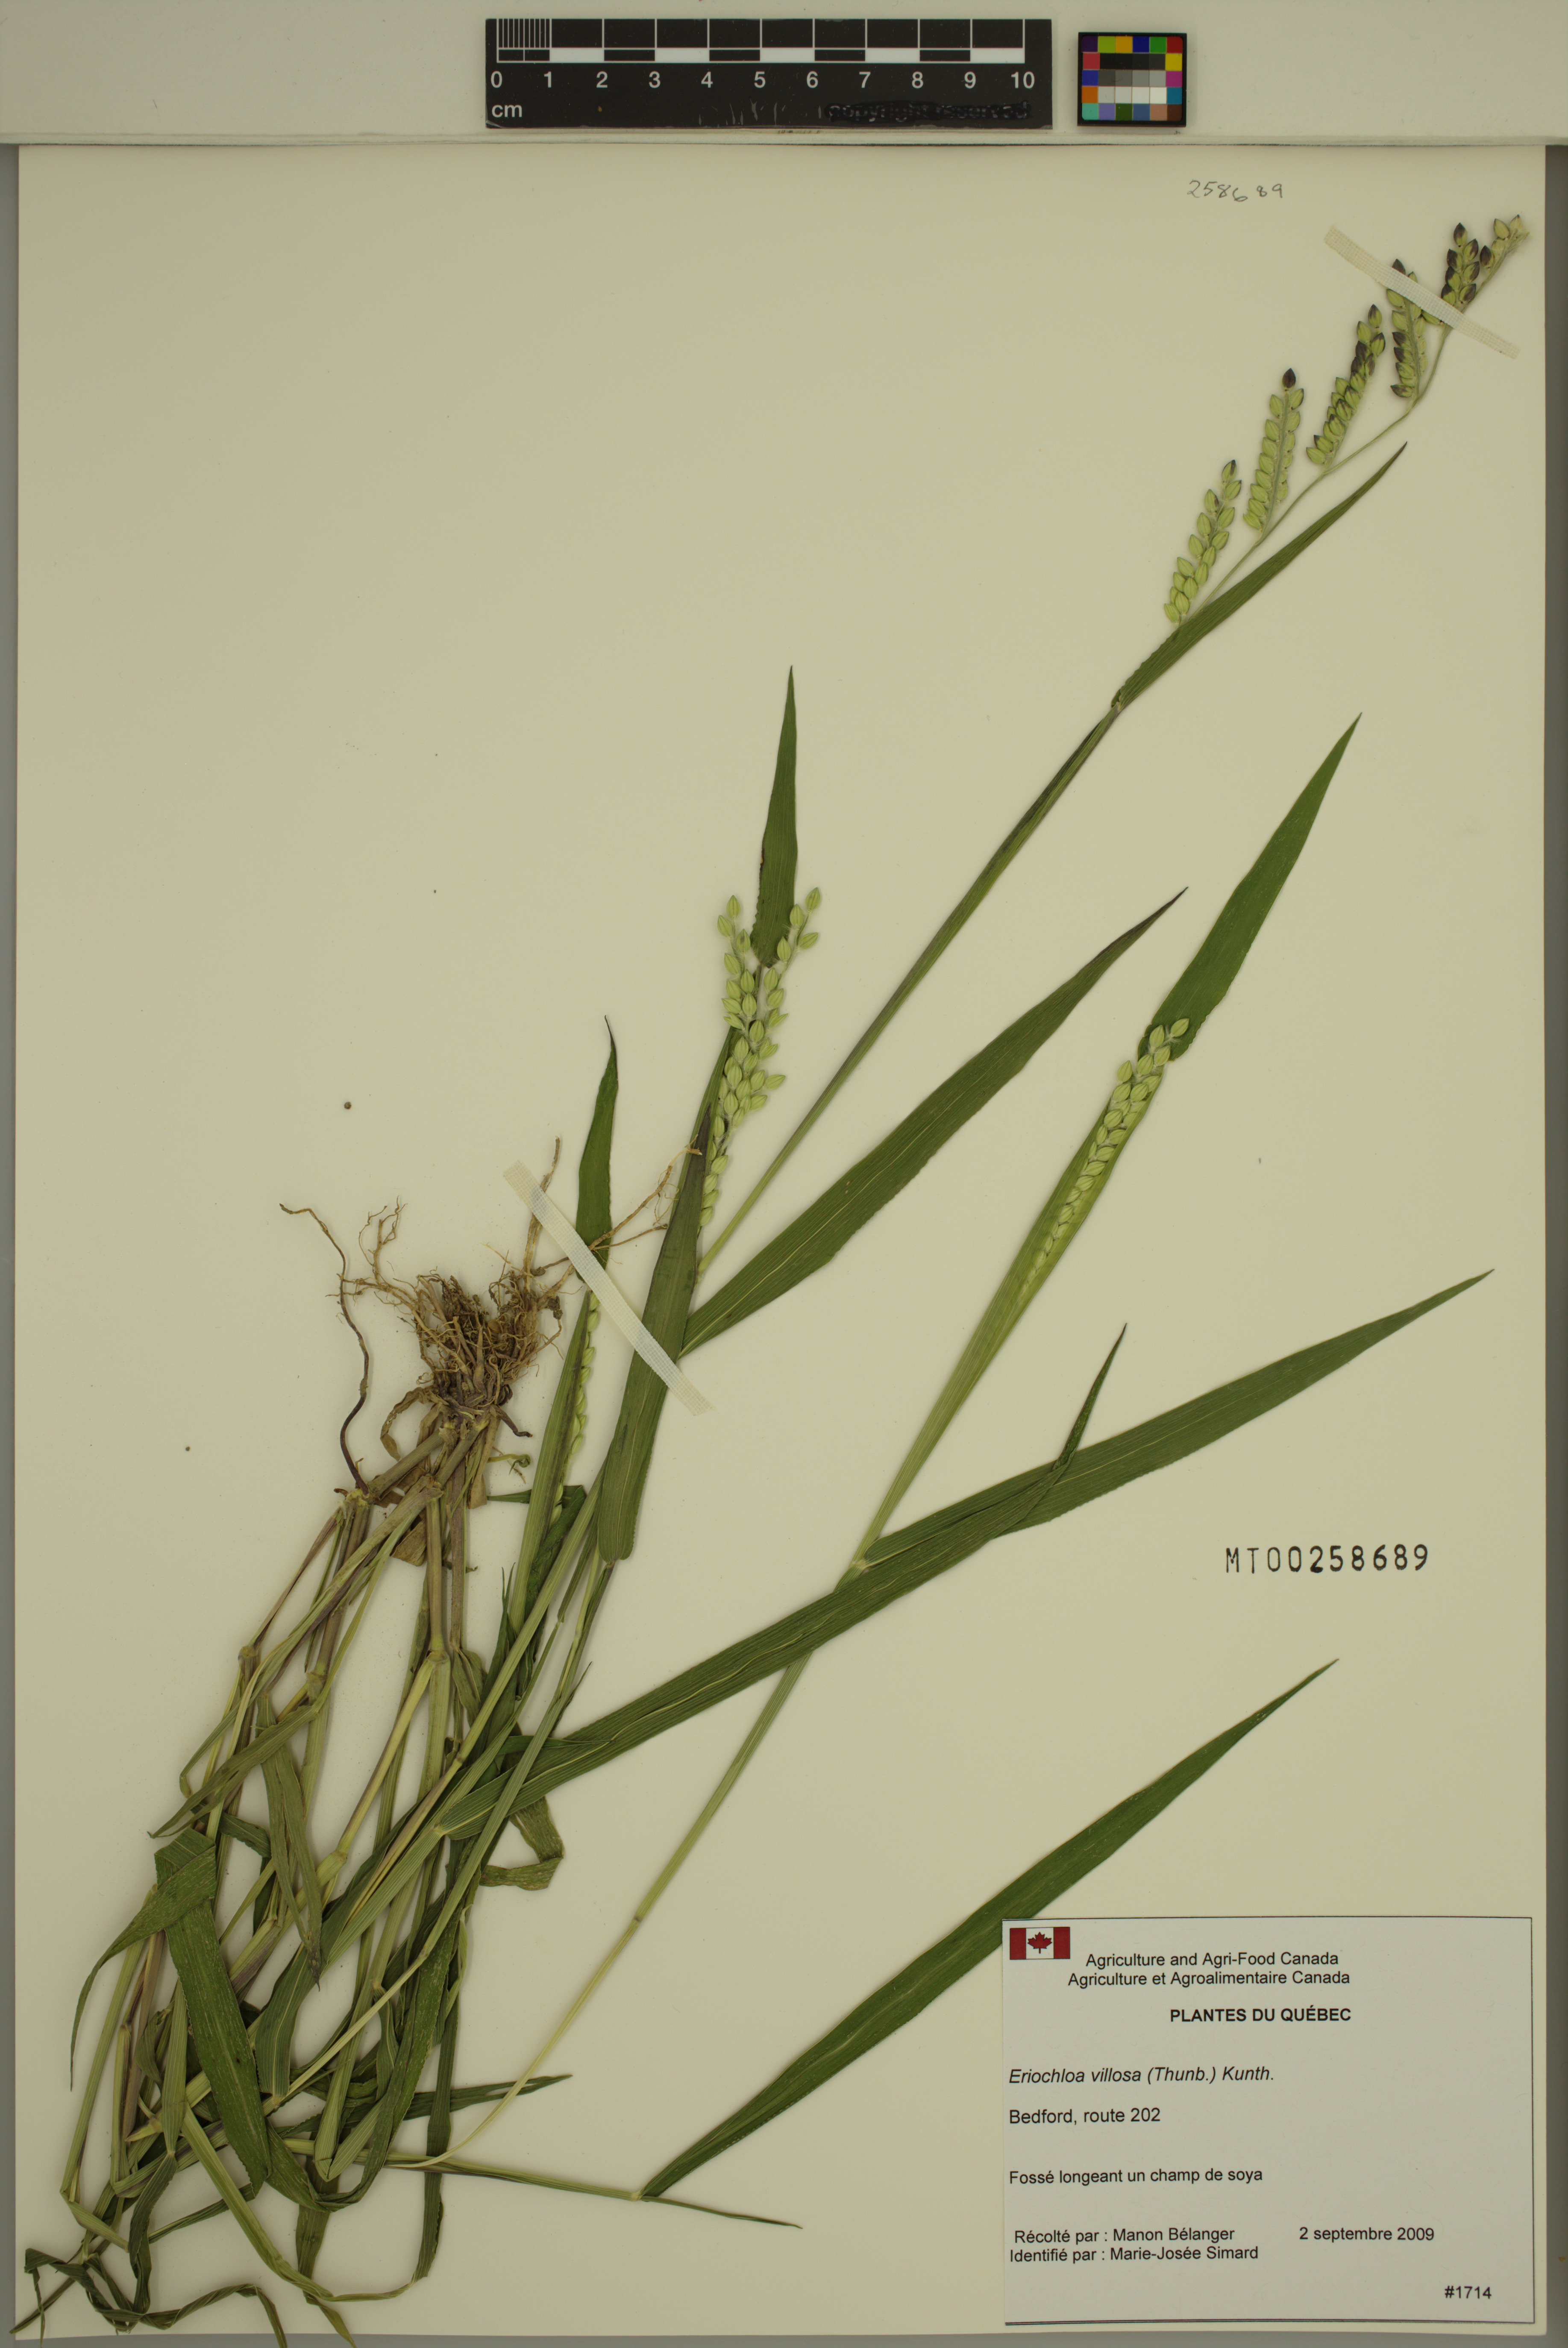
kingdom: Plantae
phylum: Tracheophyta
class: Liliopsida
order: Poales
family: Poaceae
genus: Eriochloa
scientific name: Eriochloa villosa
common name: Hairy cupgrass
